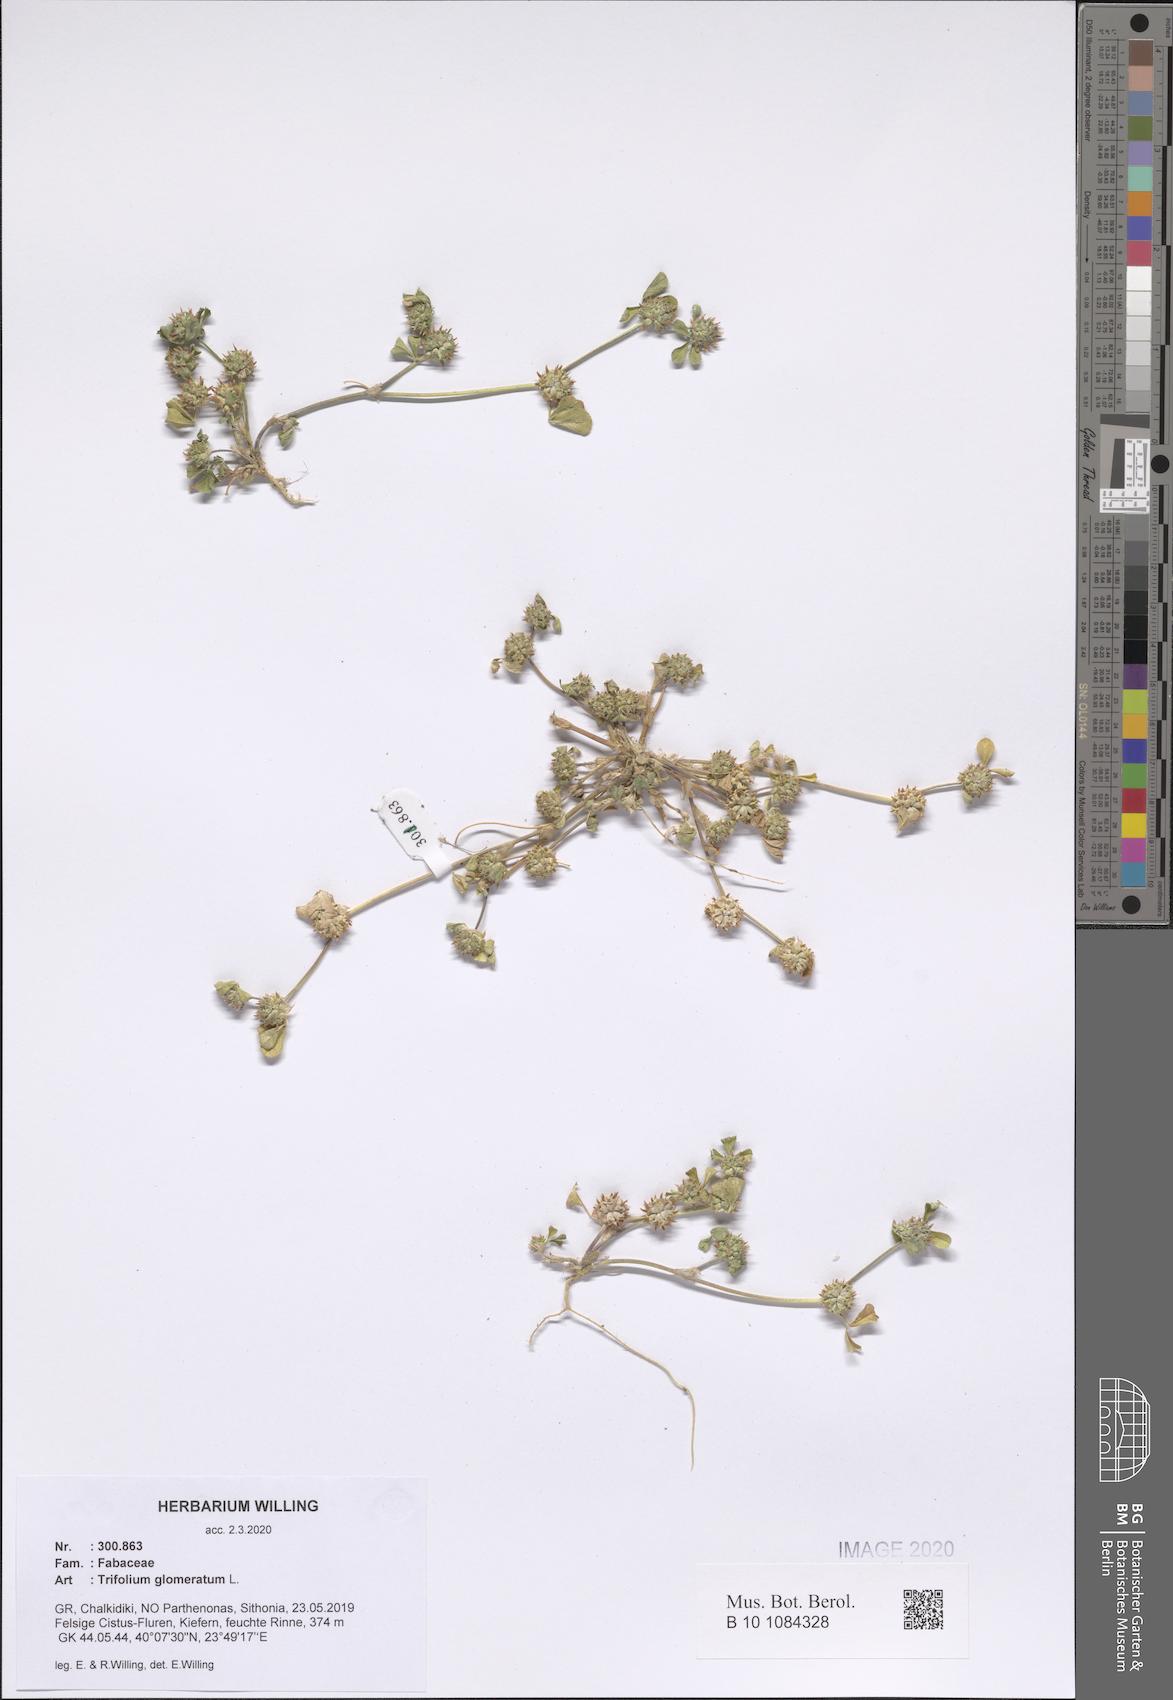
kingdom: Plantae
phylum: Tracheophyta
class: Magnoliopsida
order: Fabales
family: Fabaceae
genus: Trifolium
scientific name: Trifolium glomeratum
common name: Clustered clover
